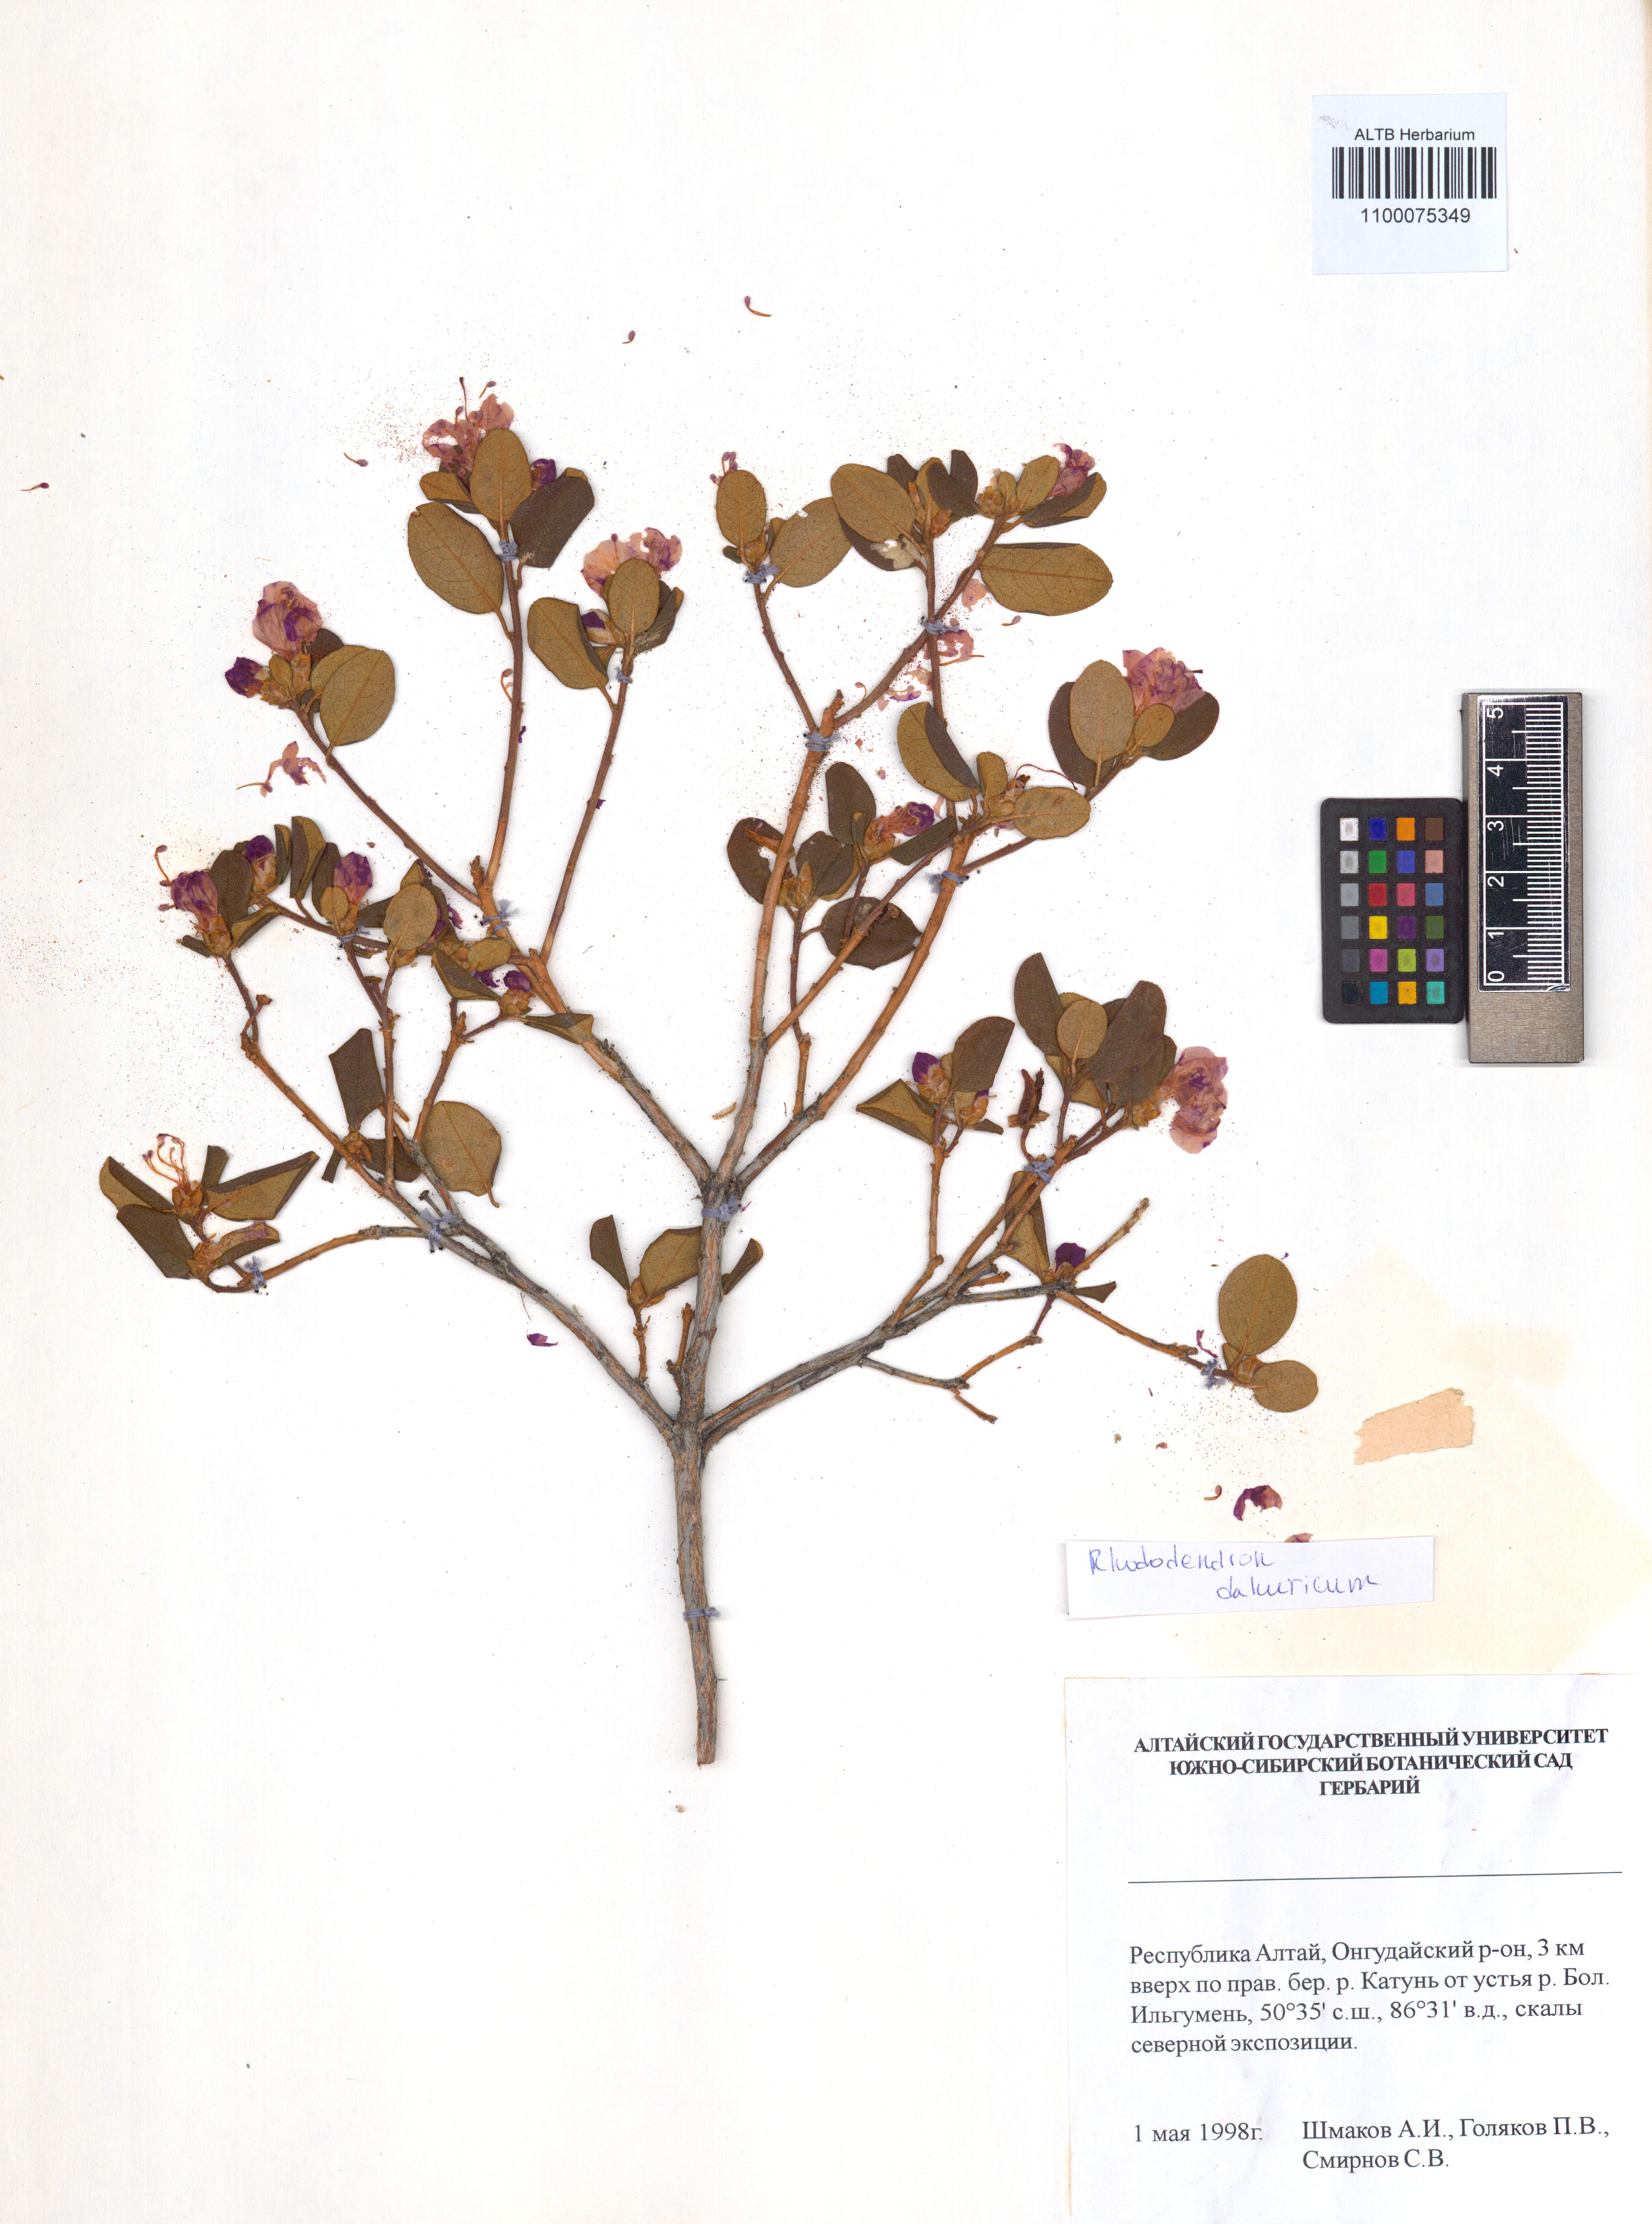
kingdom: Plantae
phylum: Tracheophyta
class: Magnoliopsida
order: Ericales
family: Ericaceae
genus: Rhododendron
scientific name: Rhododendron dauricum
